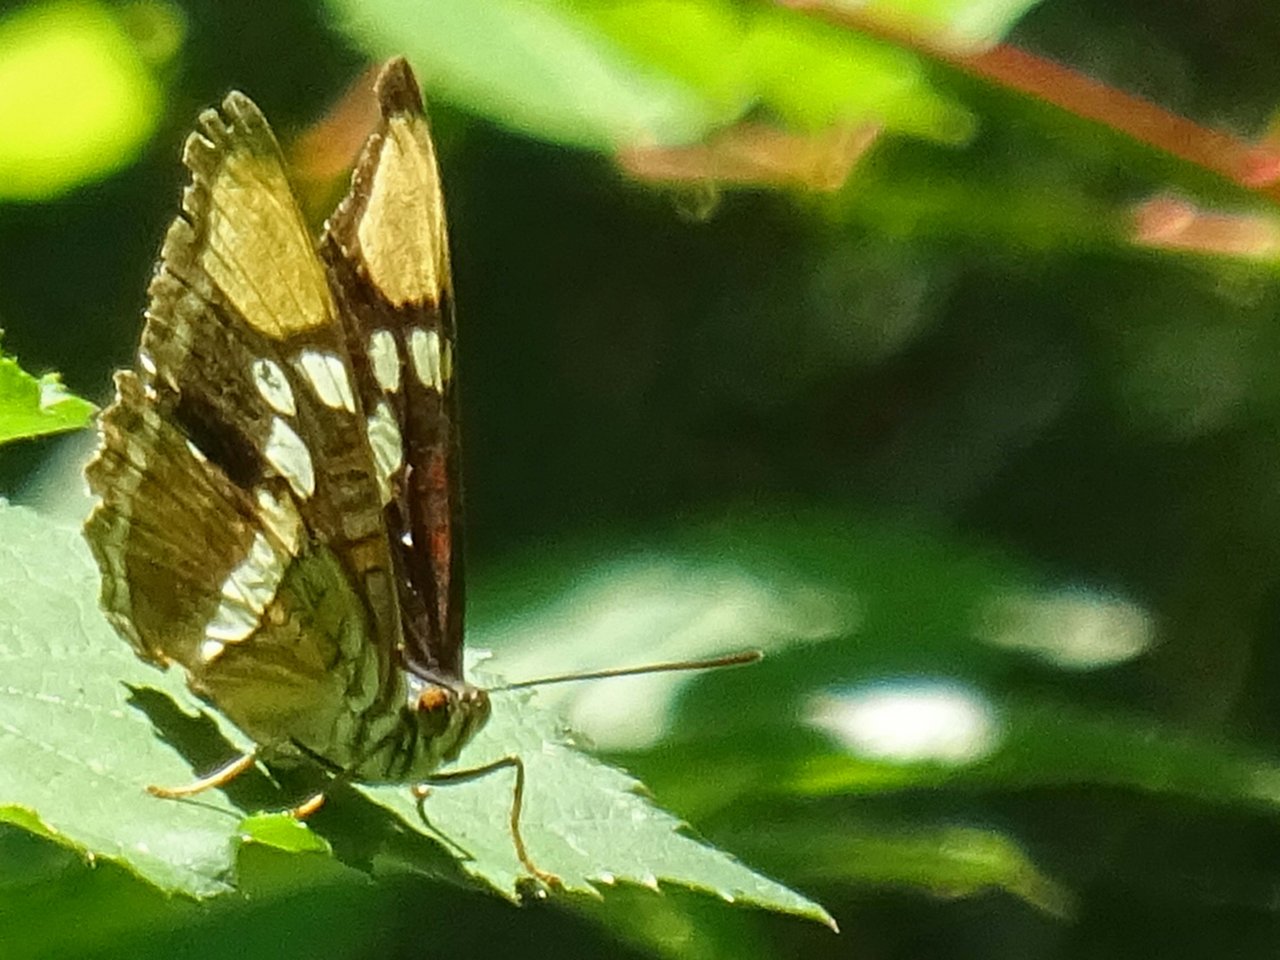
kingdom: Animalia
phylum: Arthropoda
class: Insecta
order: Lepidoptera
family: Nymphalidae
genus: Limenitis
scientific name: Limenitis bredowii
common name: California Sister
